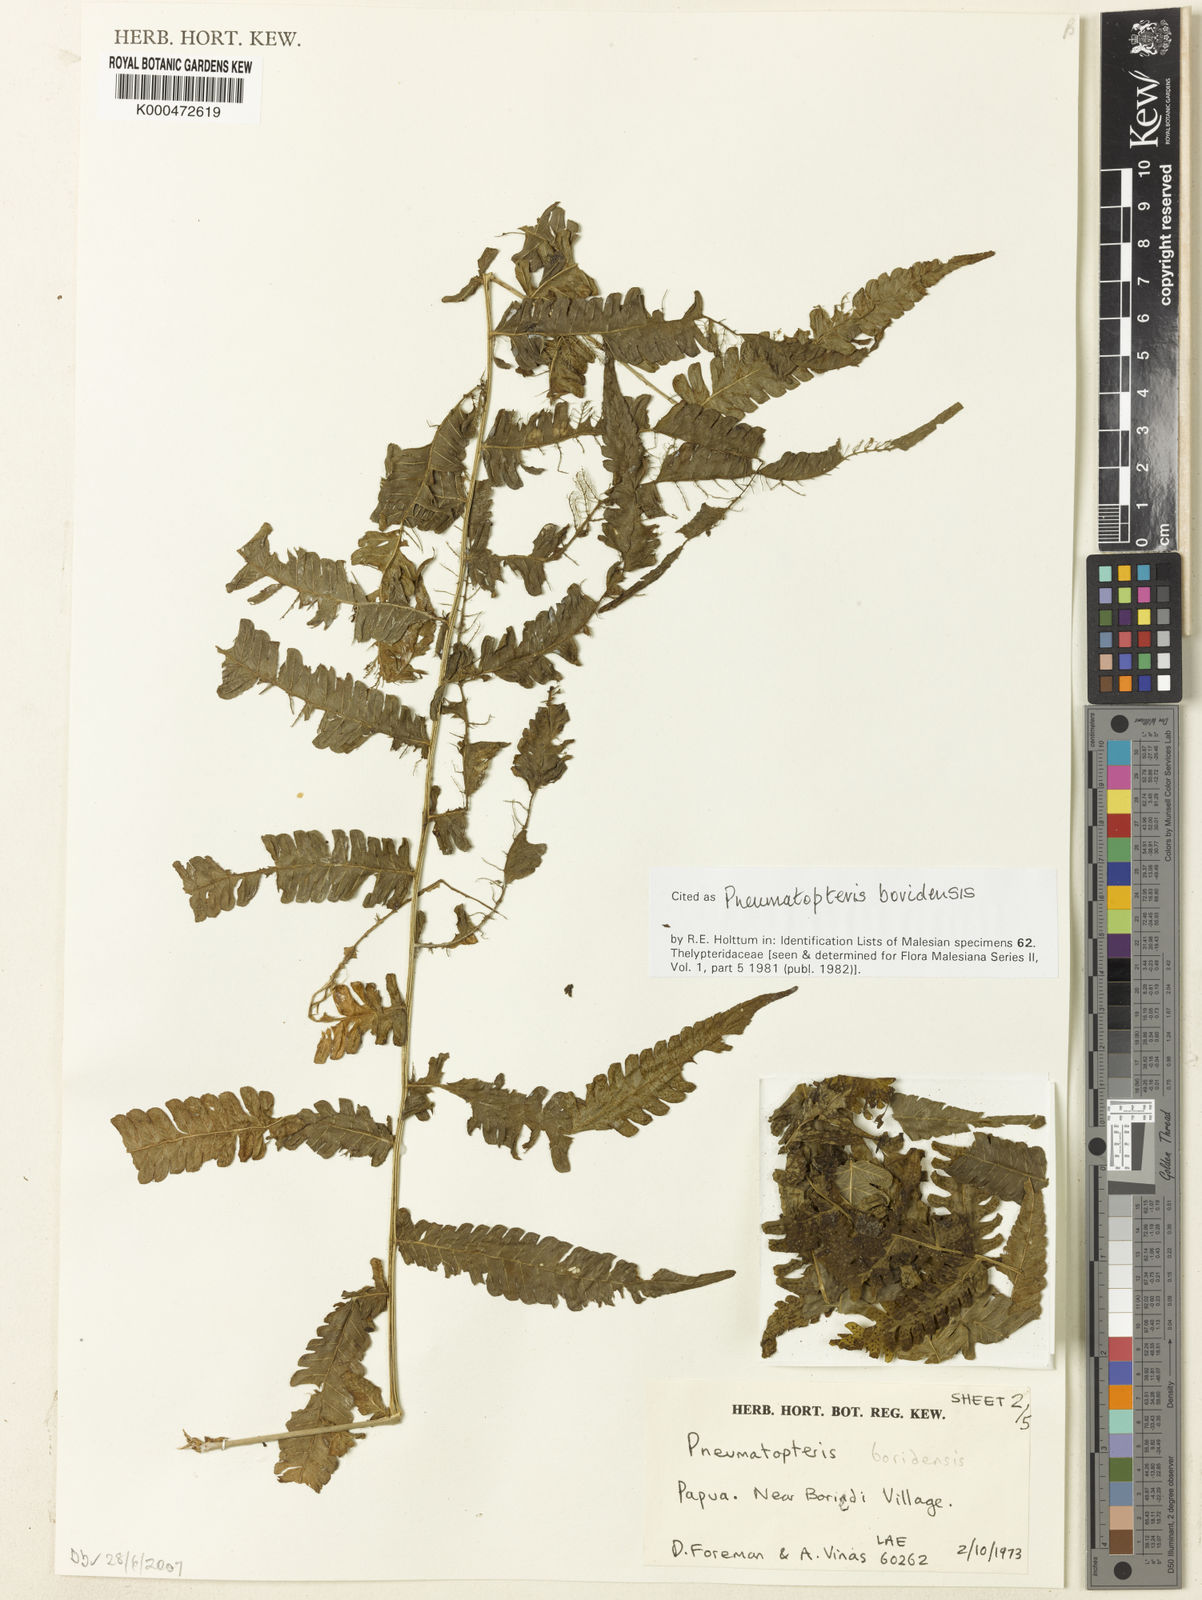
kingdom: Plantae
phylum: Tracheophyta
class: Polypodiopsida
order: Polypodiales
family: Thelypteridaceae
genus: Reholttumia
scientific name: Reholttumia boridensis
